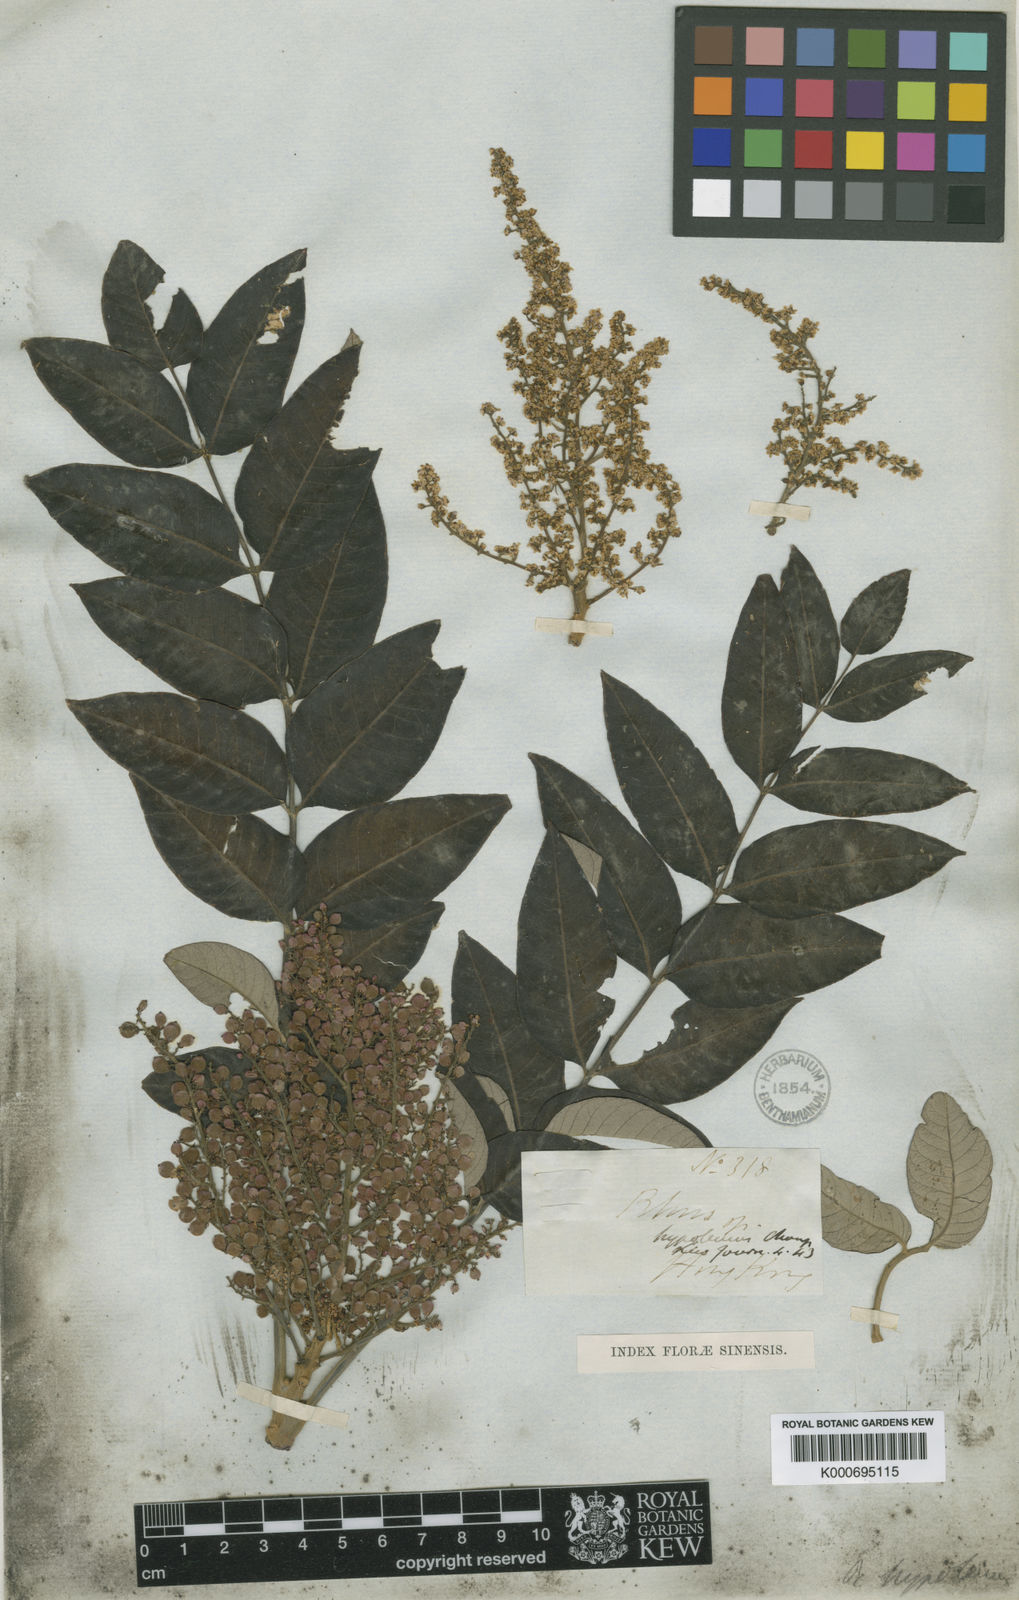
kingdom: Plantae
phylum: Tracheophyta
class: Magnoliopsida
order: Sapindales
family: Anacardiaceae
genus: Rhus
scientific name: Rhus hypoleuca
